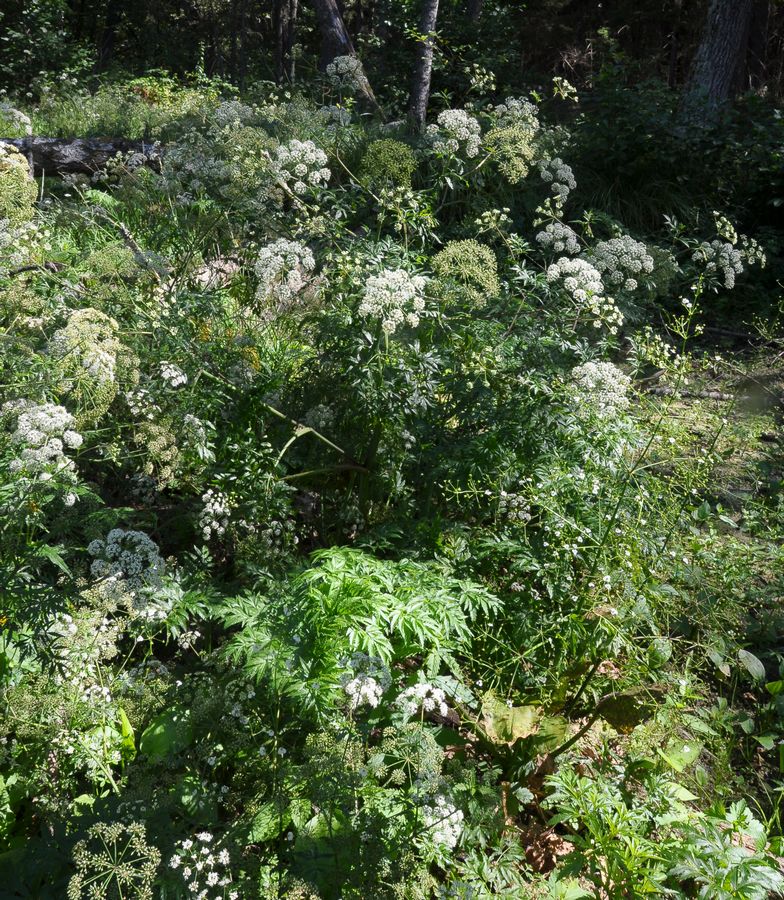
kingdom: Plantae
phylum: Tracheophyta
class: Magnoliopsida
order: Apiales
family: Apiaceae
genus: Cicuta
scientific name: Cicuta virosa
